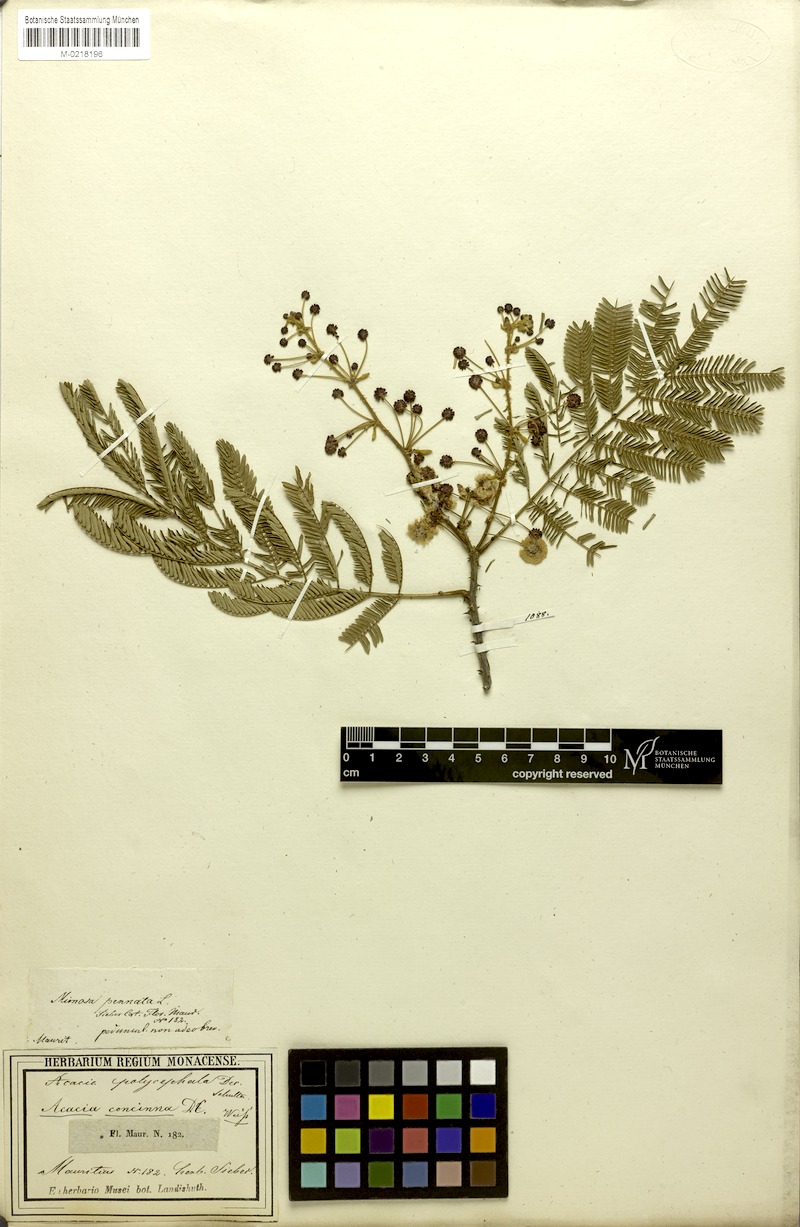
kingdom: Plantae
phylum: Tracheophyta
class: Magnoliopsida
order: Fabales
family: Fabaceae
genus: Senegalia
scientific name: Senegalia rugata
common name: Soap-pod
